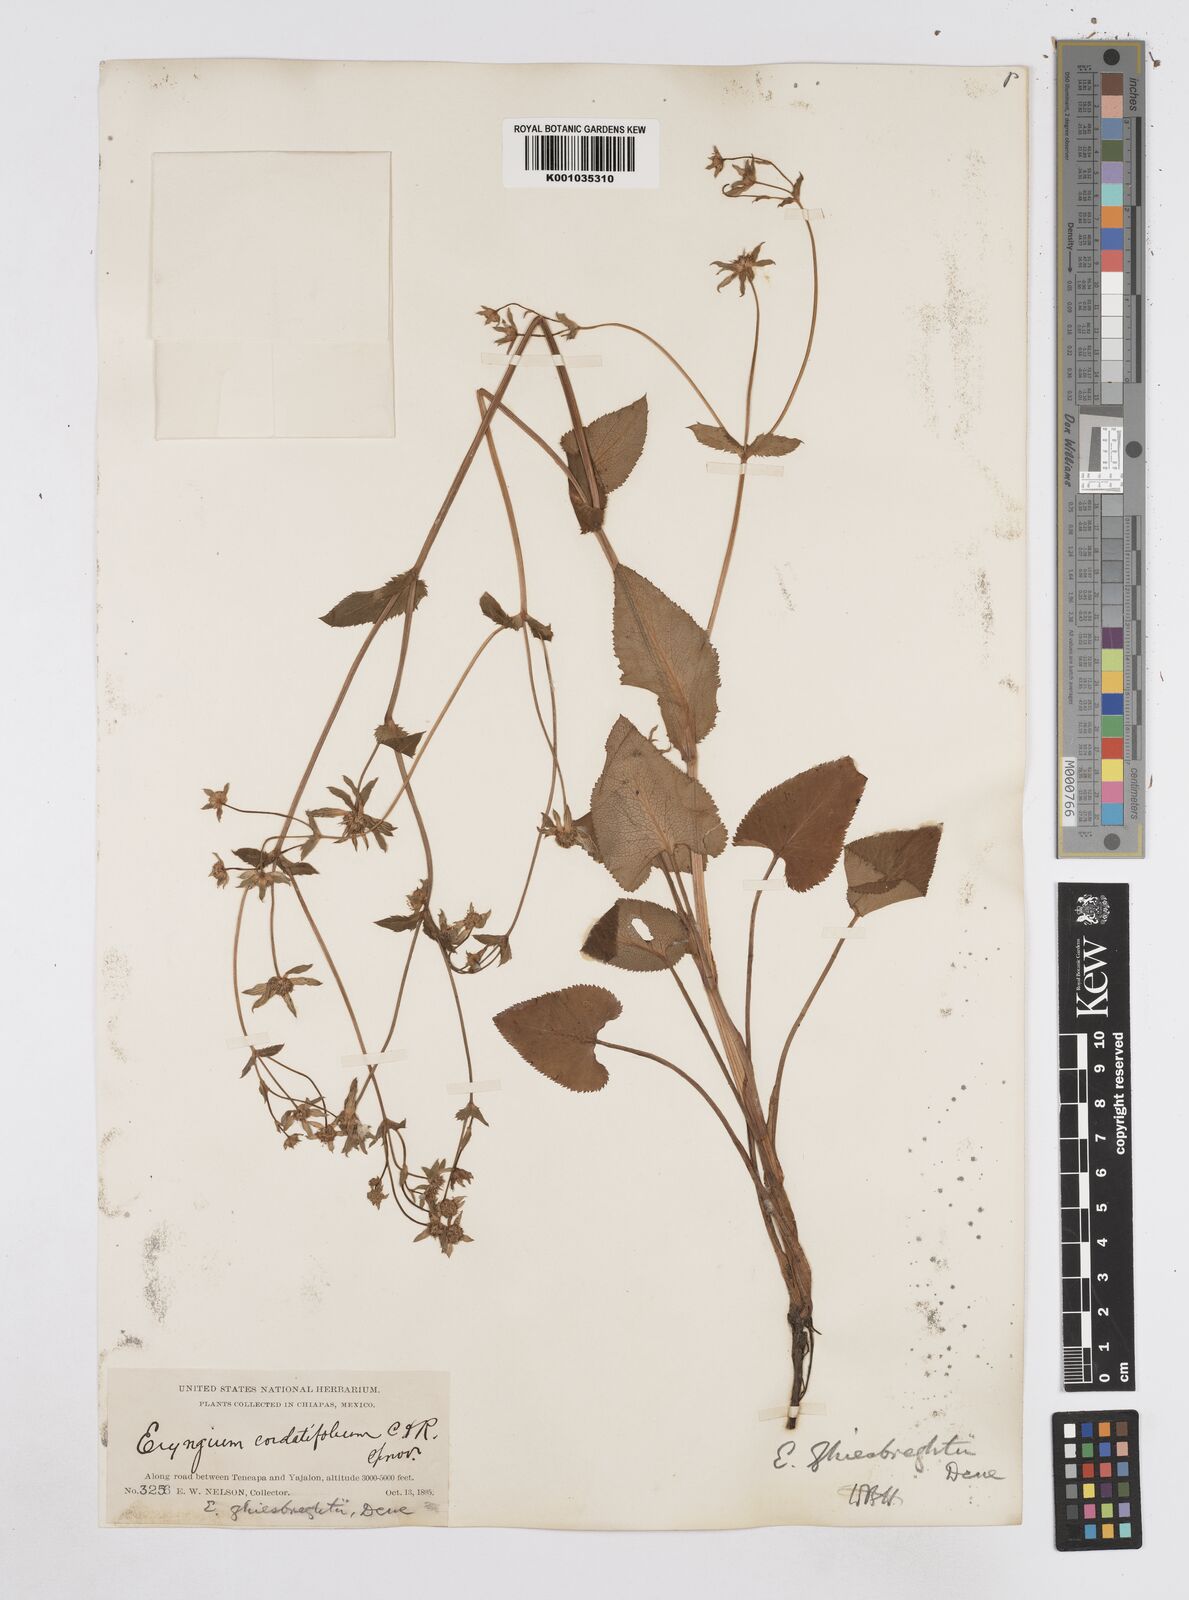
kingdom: Plantae
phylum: Tracheophyta
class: Magnoliopsida
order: Apiales
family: Apiaceae
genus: Eryngium
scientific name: Eryngium ghiesbreghtii
